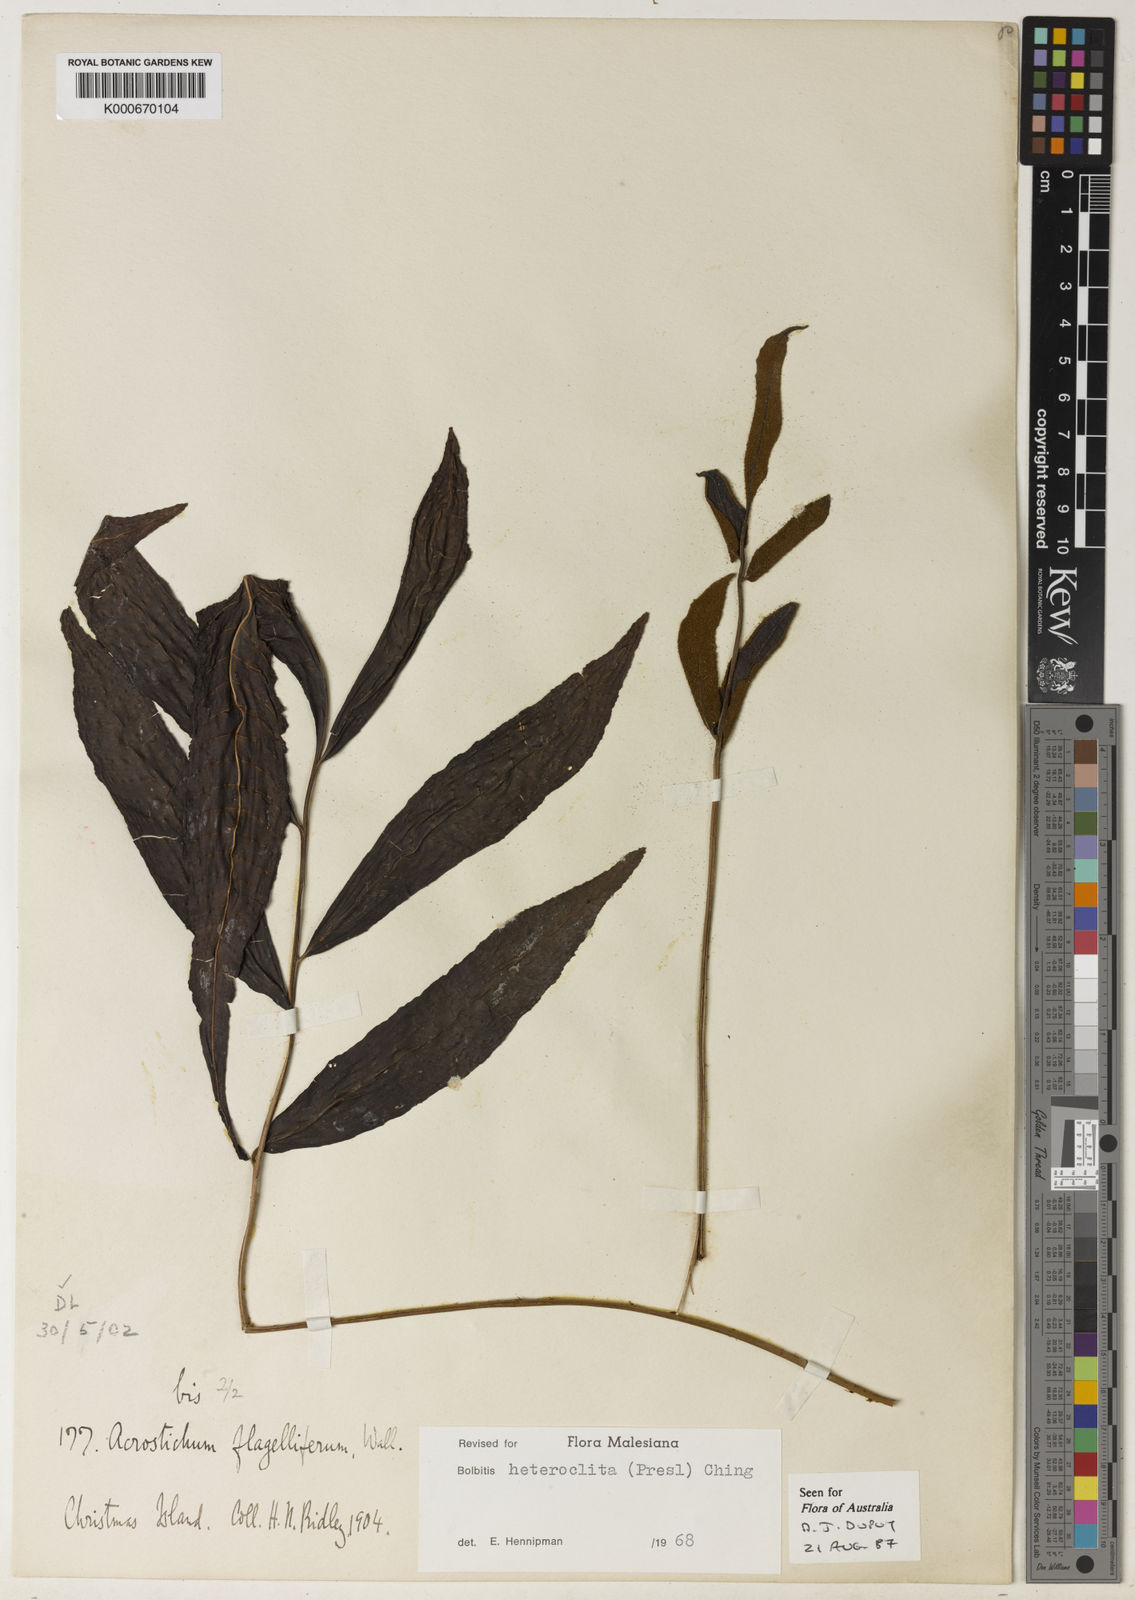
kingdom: Plantae
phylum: Tracheophyta
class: Polypodiopsida
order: Polypodiales
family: Dryopteridaceae
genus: Bolbitis
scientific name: Bolbitis heteroclita
